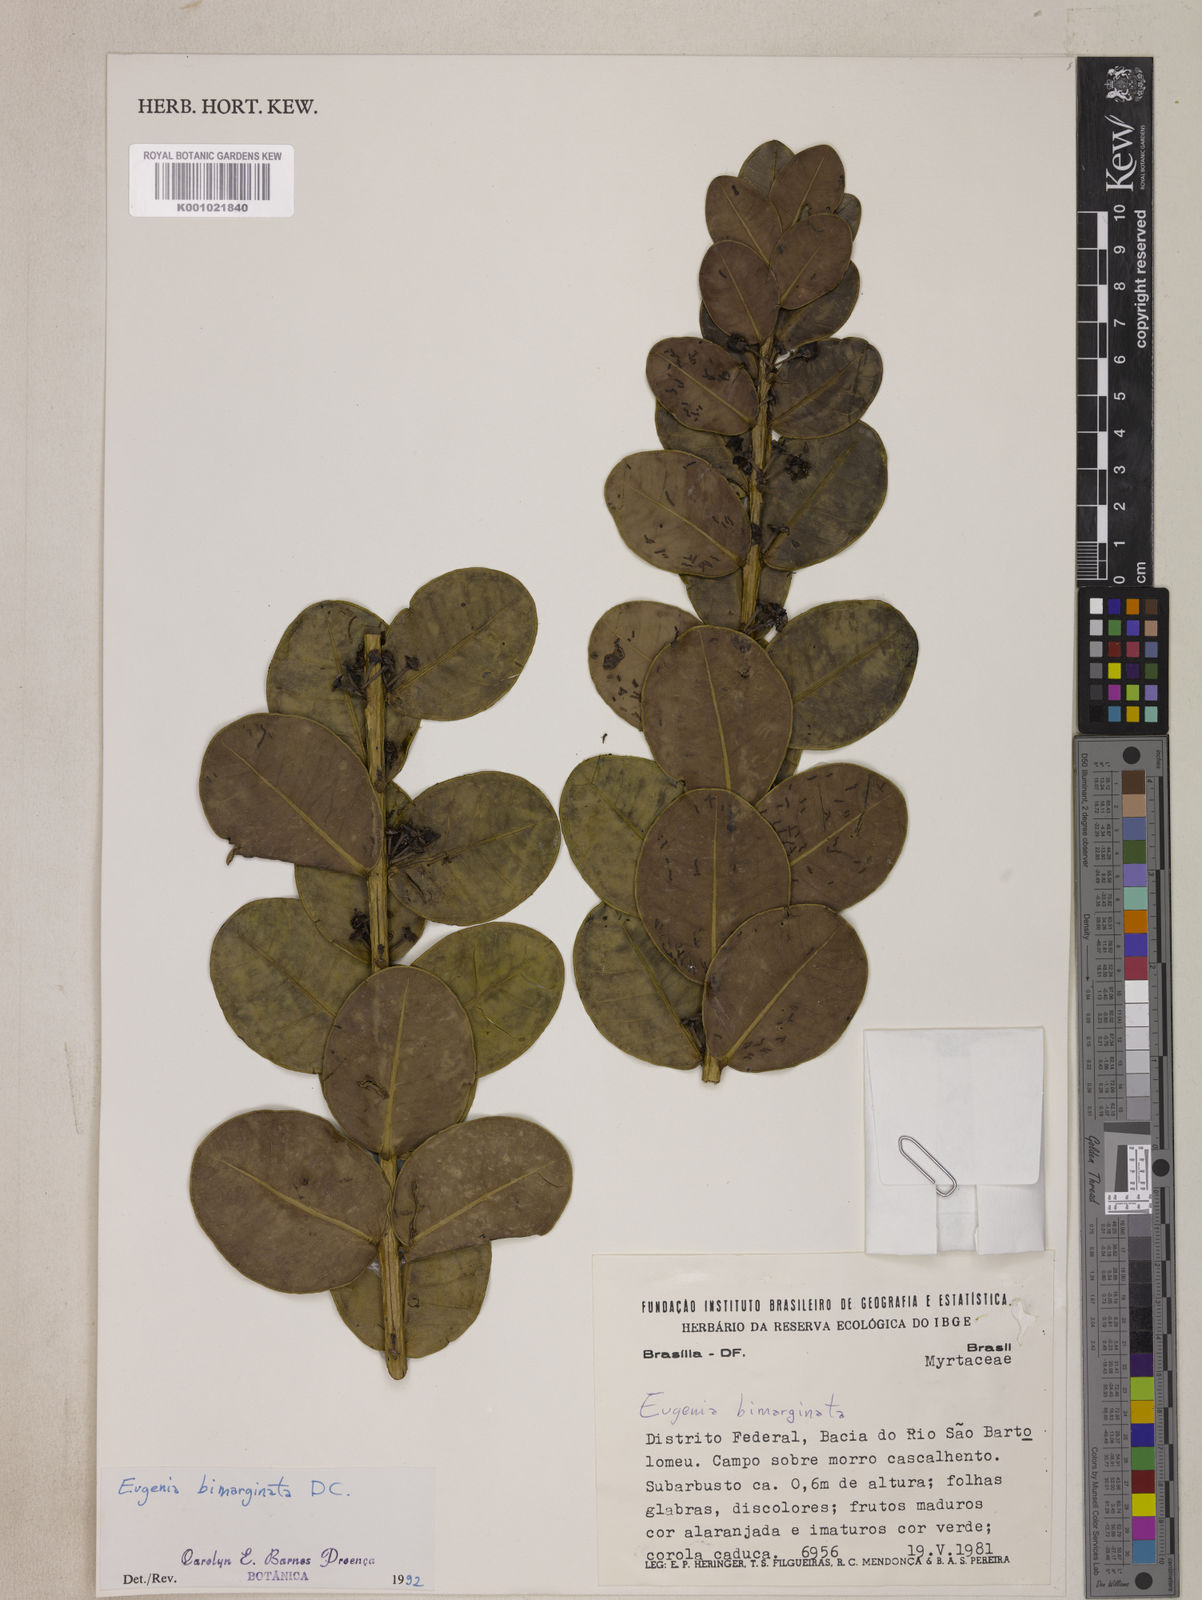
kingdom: Plantae
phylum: Tracheophyta
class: Magnoliopsida
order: Myrtales
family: Myrtaceae
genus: Eugenia
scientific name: Eugenia bimarginata
